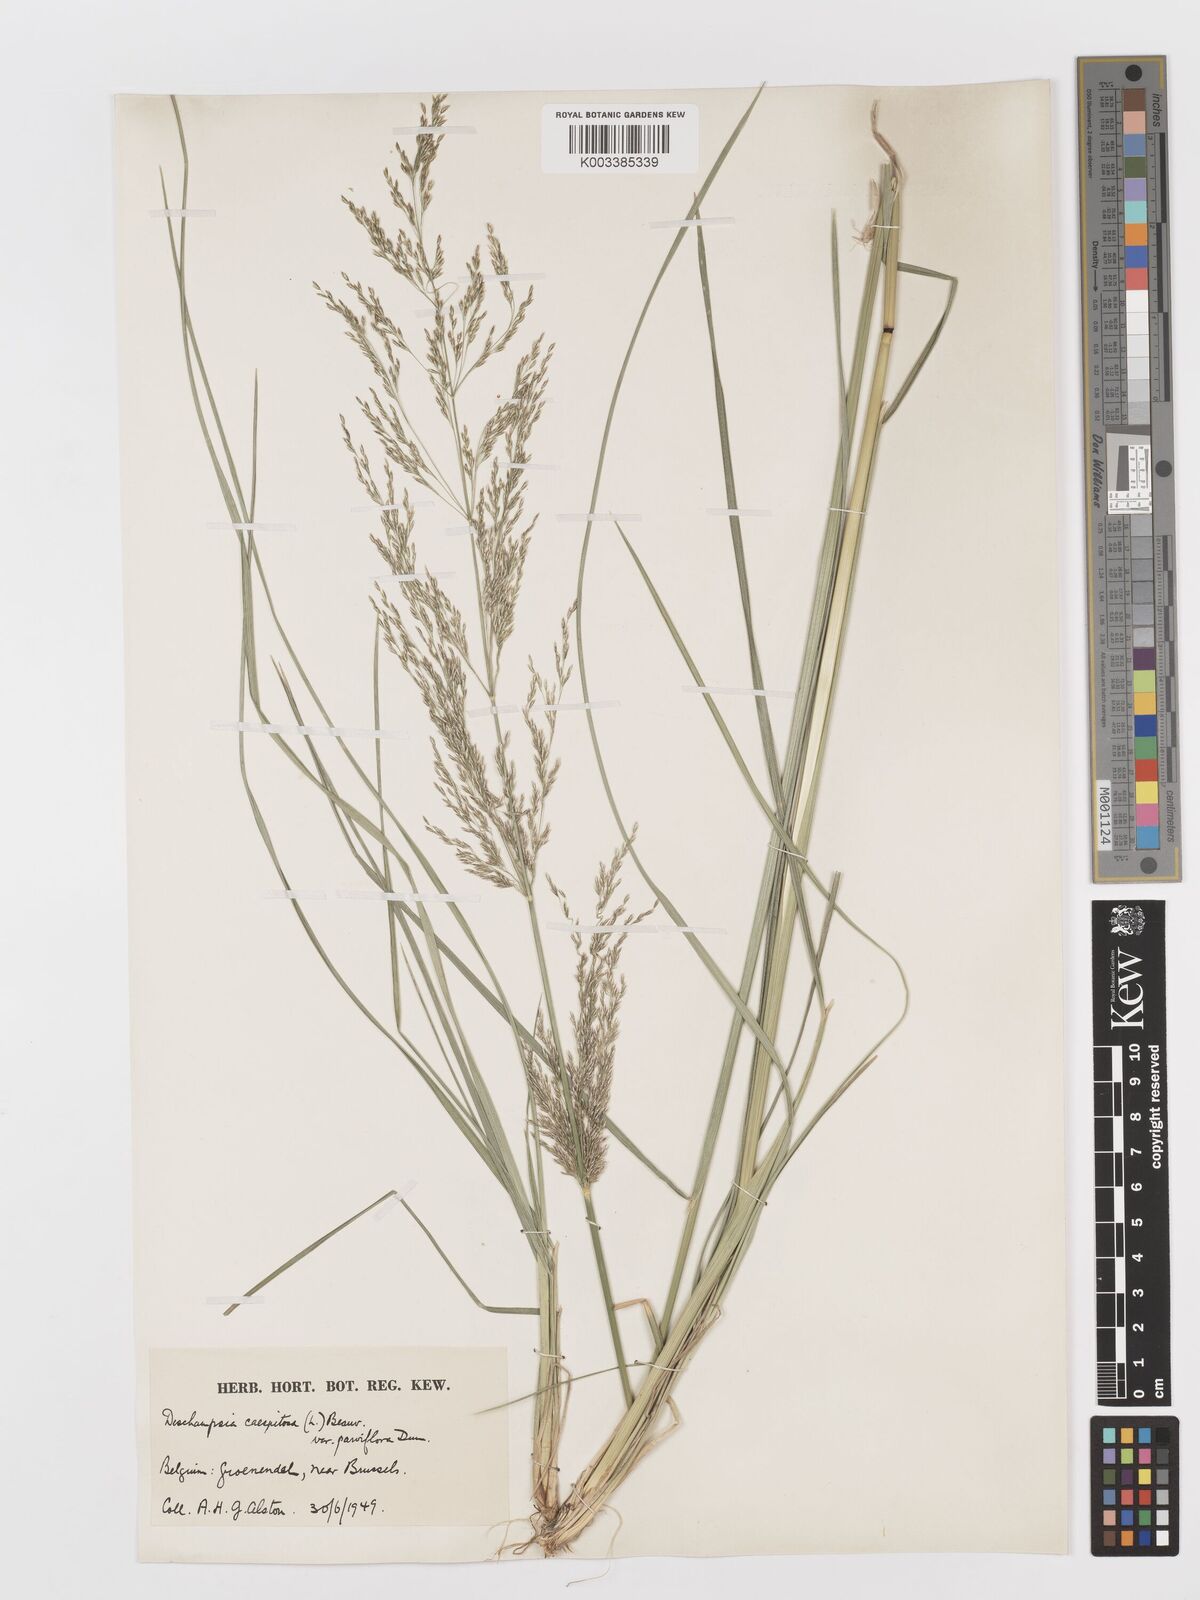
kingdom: Plantae
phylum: Tracheophyta
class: Liliopsida
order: Poales
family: Poaceae
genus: Deschampsia
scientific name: Deschampsia cespitosa
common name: Tufted hair-grass
